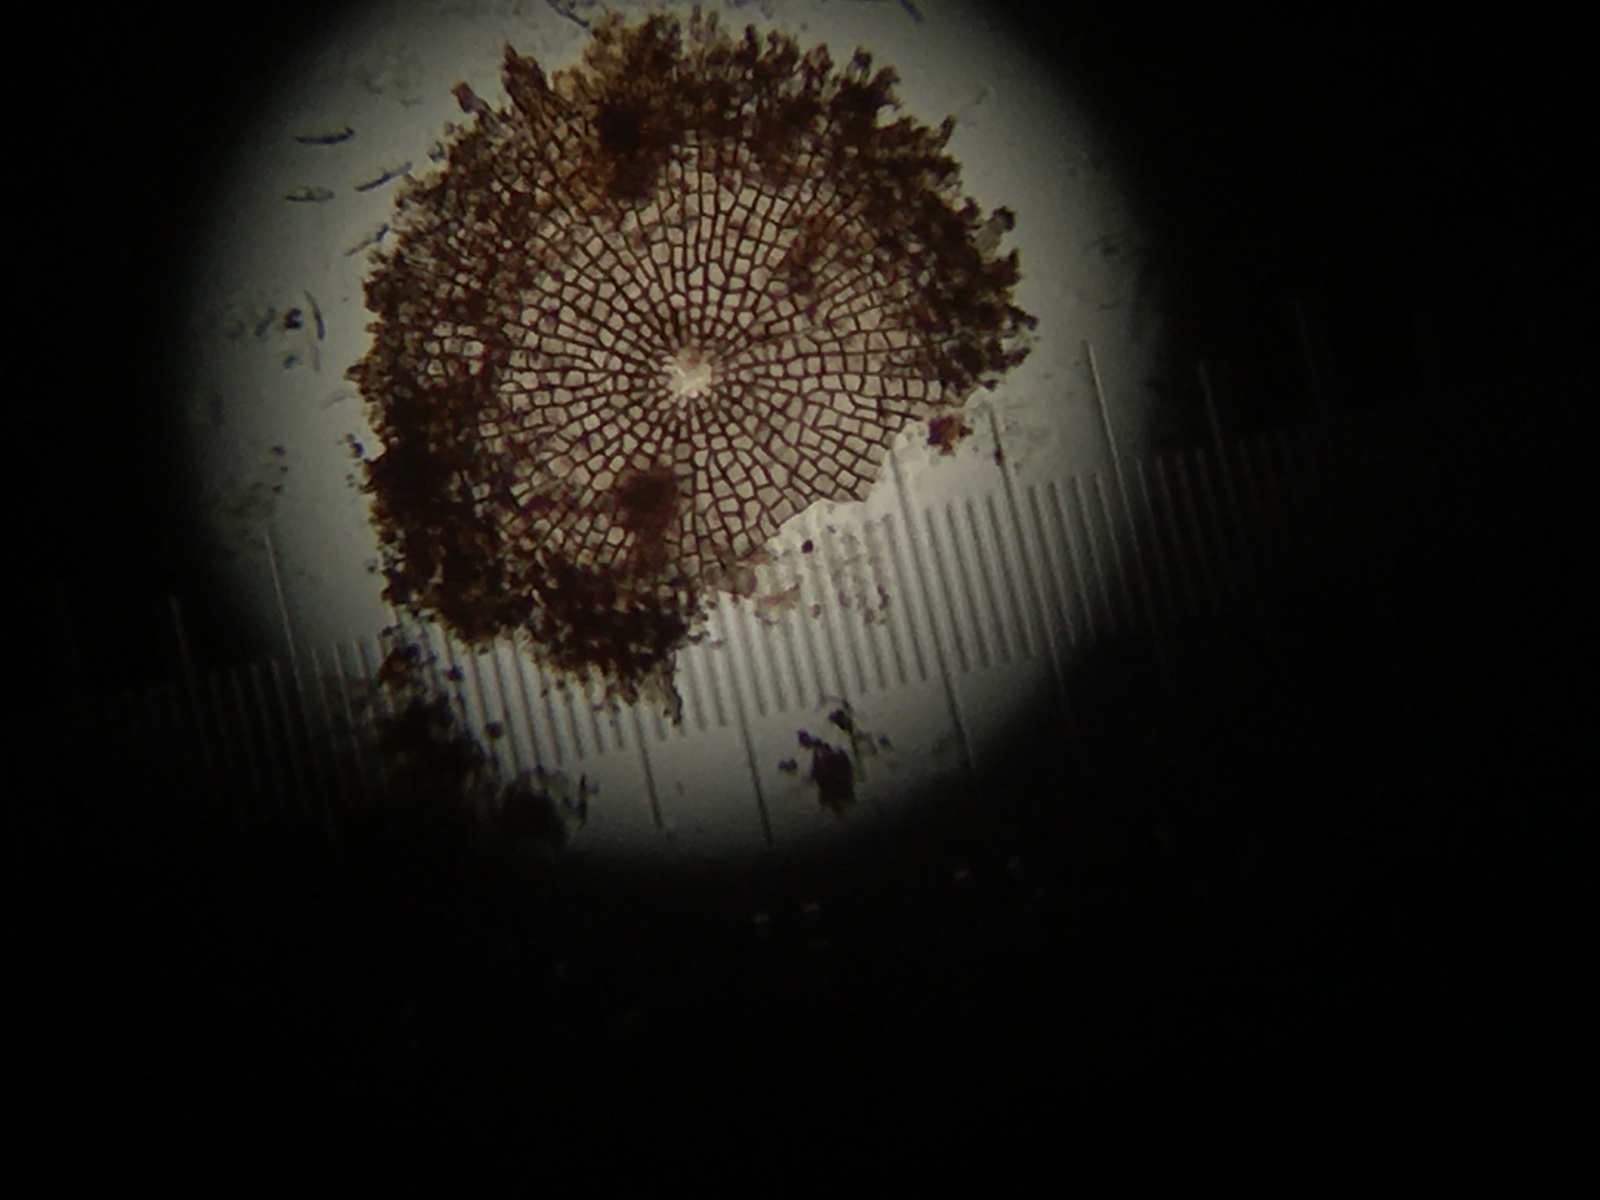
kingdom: Fungi
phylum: Ascomycota
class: Dothideomycetes
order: Microthyriales
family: Microthyriaceae
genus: Microthyrium
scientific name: Microthyrium ciliatum
